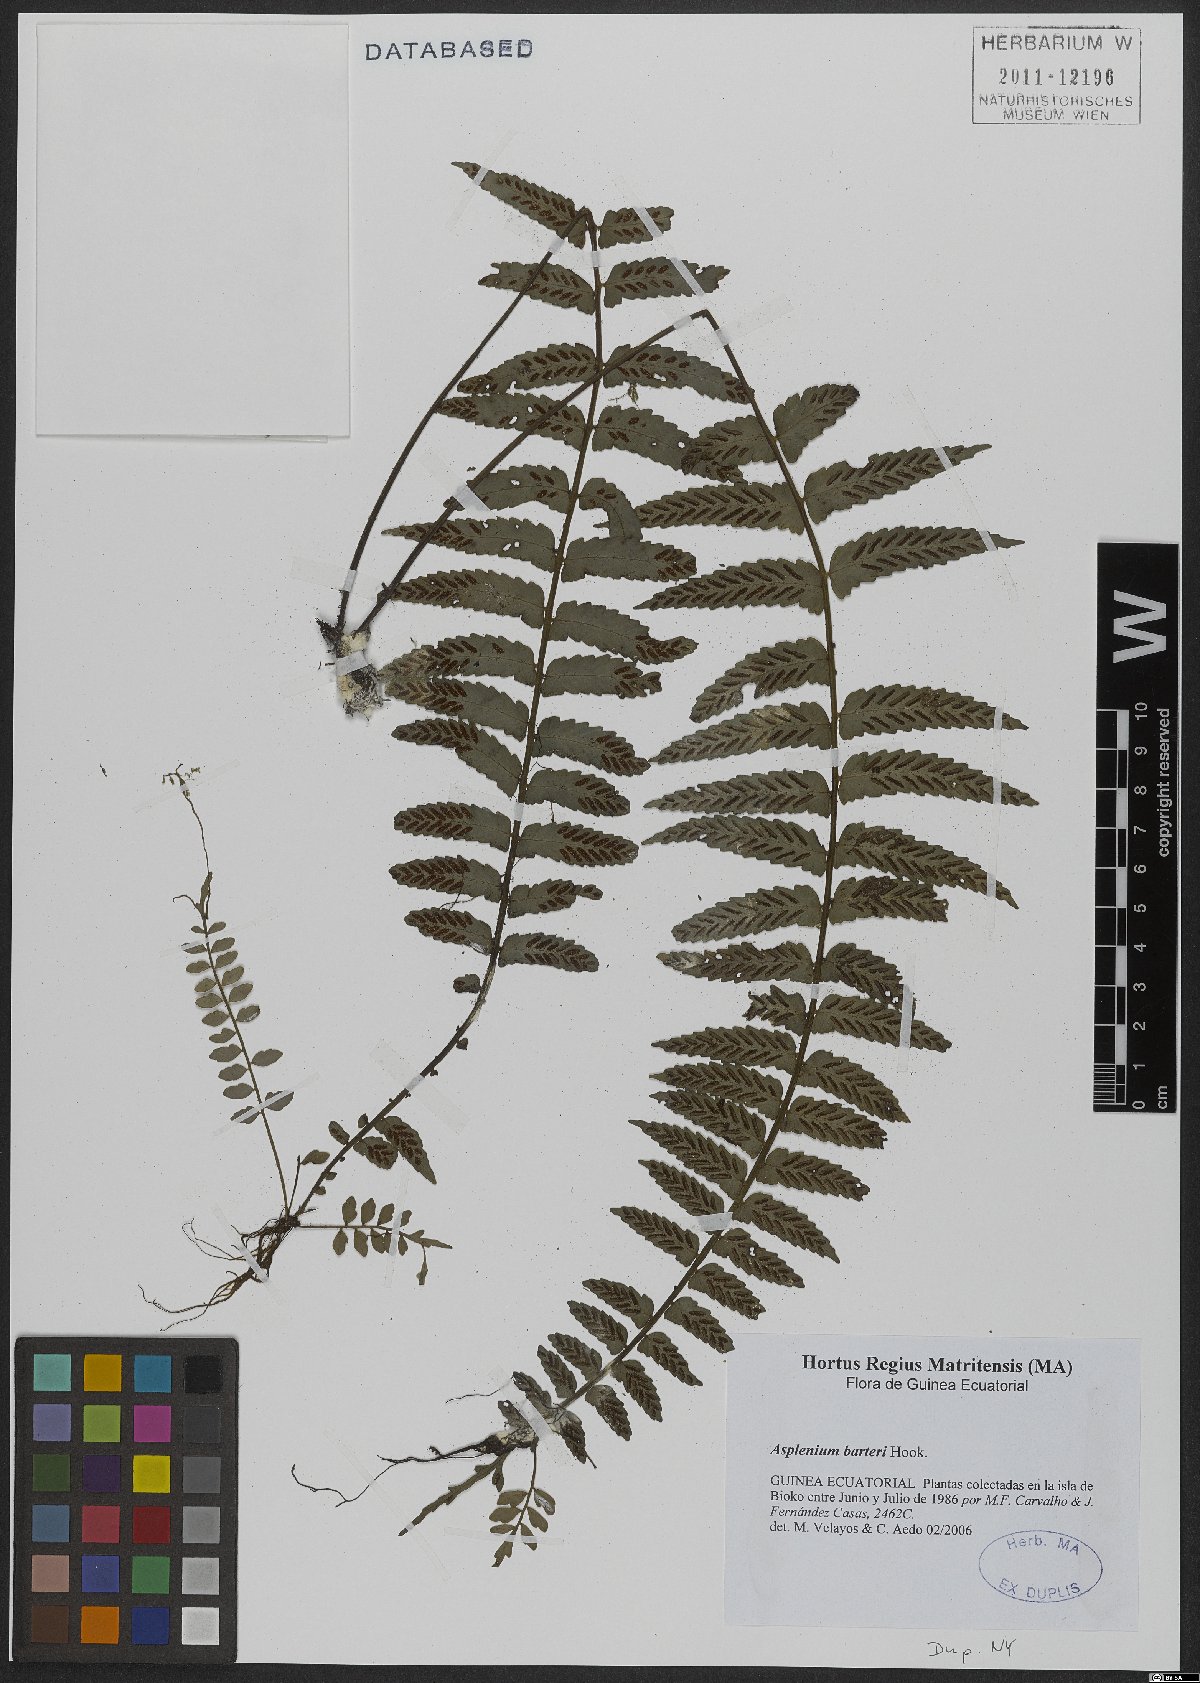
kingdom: Plantae
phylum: Tracheophyta
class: Polypodiopsida
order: Polypodiales
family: Aspleniaceae
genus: Asplenium
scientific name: Asplenium barteri
